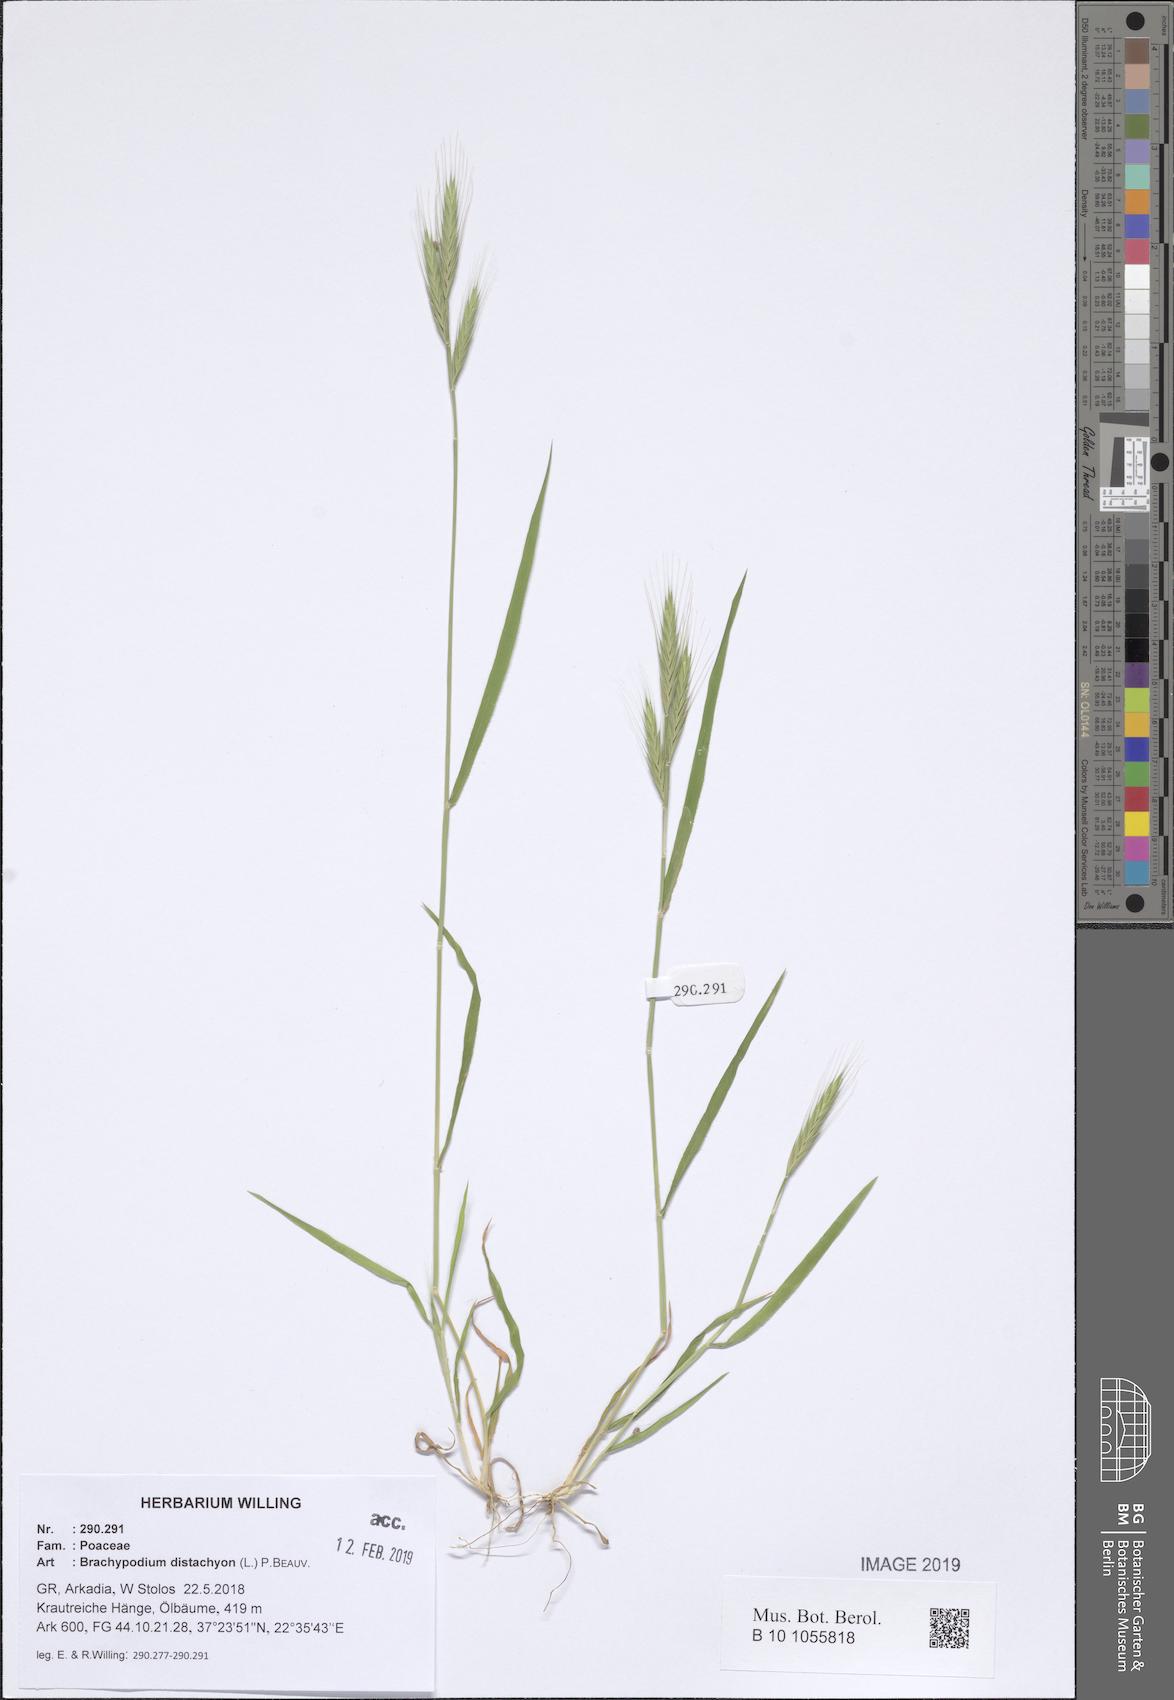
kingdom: Plantae
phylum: Tracheophyta
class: Liliopsida
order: Poales
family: Poaceae
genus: Brachypodium
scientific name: Brachypodium distachyon
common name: Stiff brome
